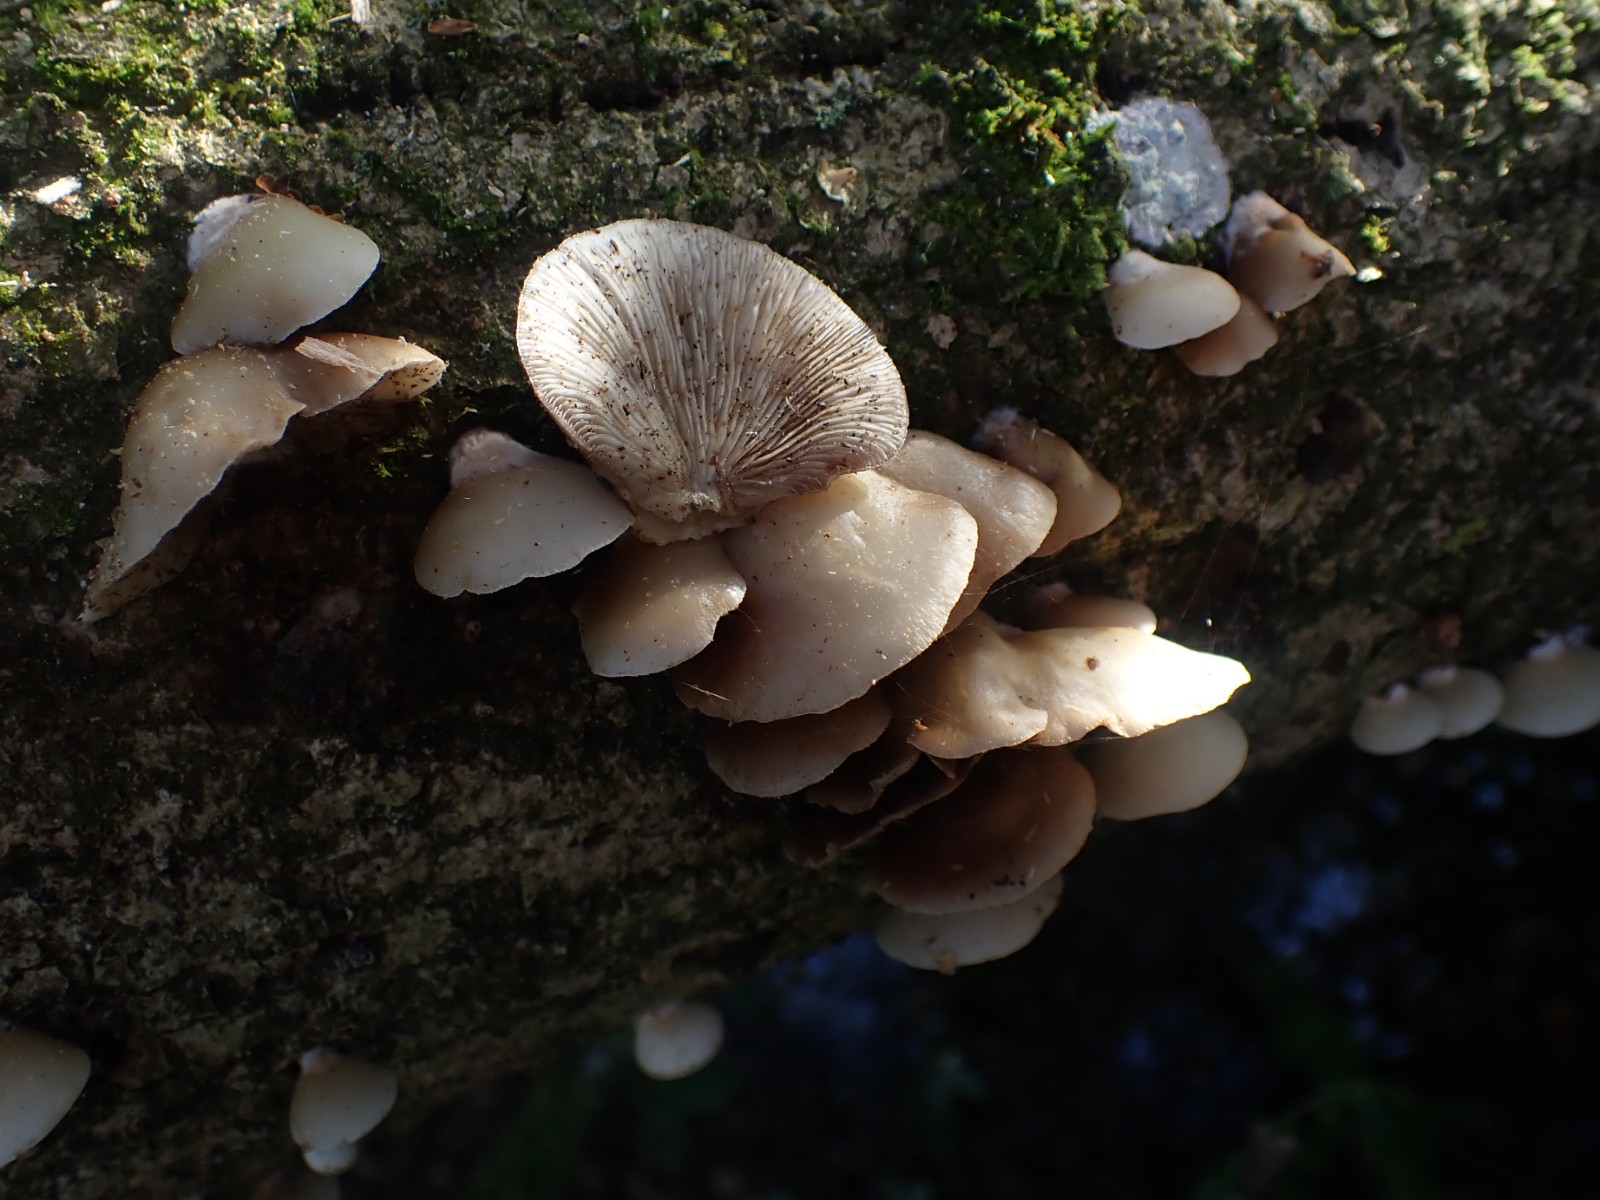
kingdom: Fungi
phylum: Basidiomycota
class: Agaricomycetes
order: Agaricales
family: Crepidotaceae
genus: Crepidotus
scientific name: Crepidotus mollis
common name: blød muslingesvamp
